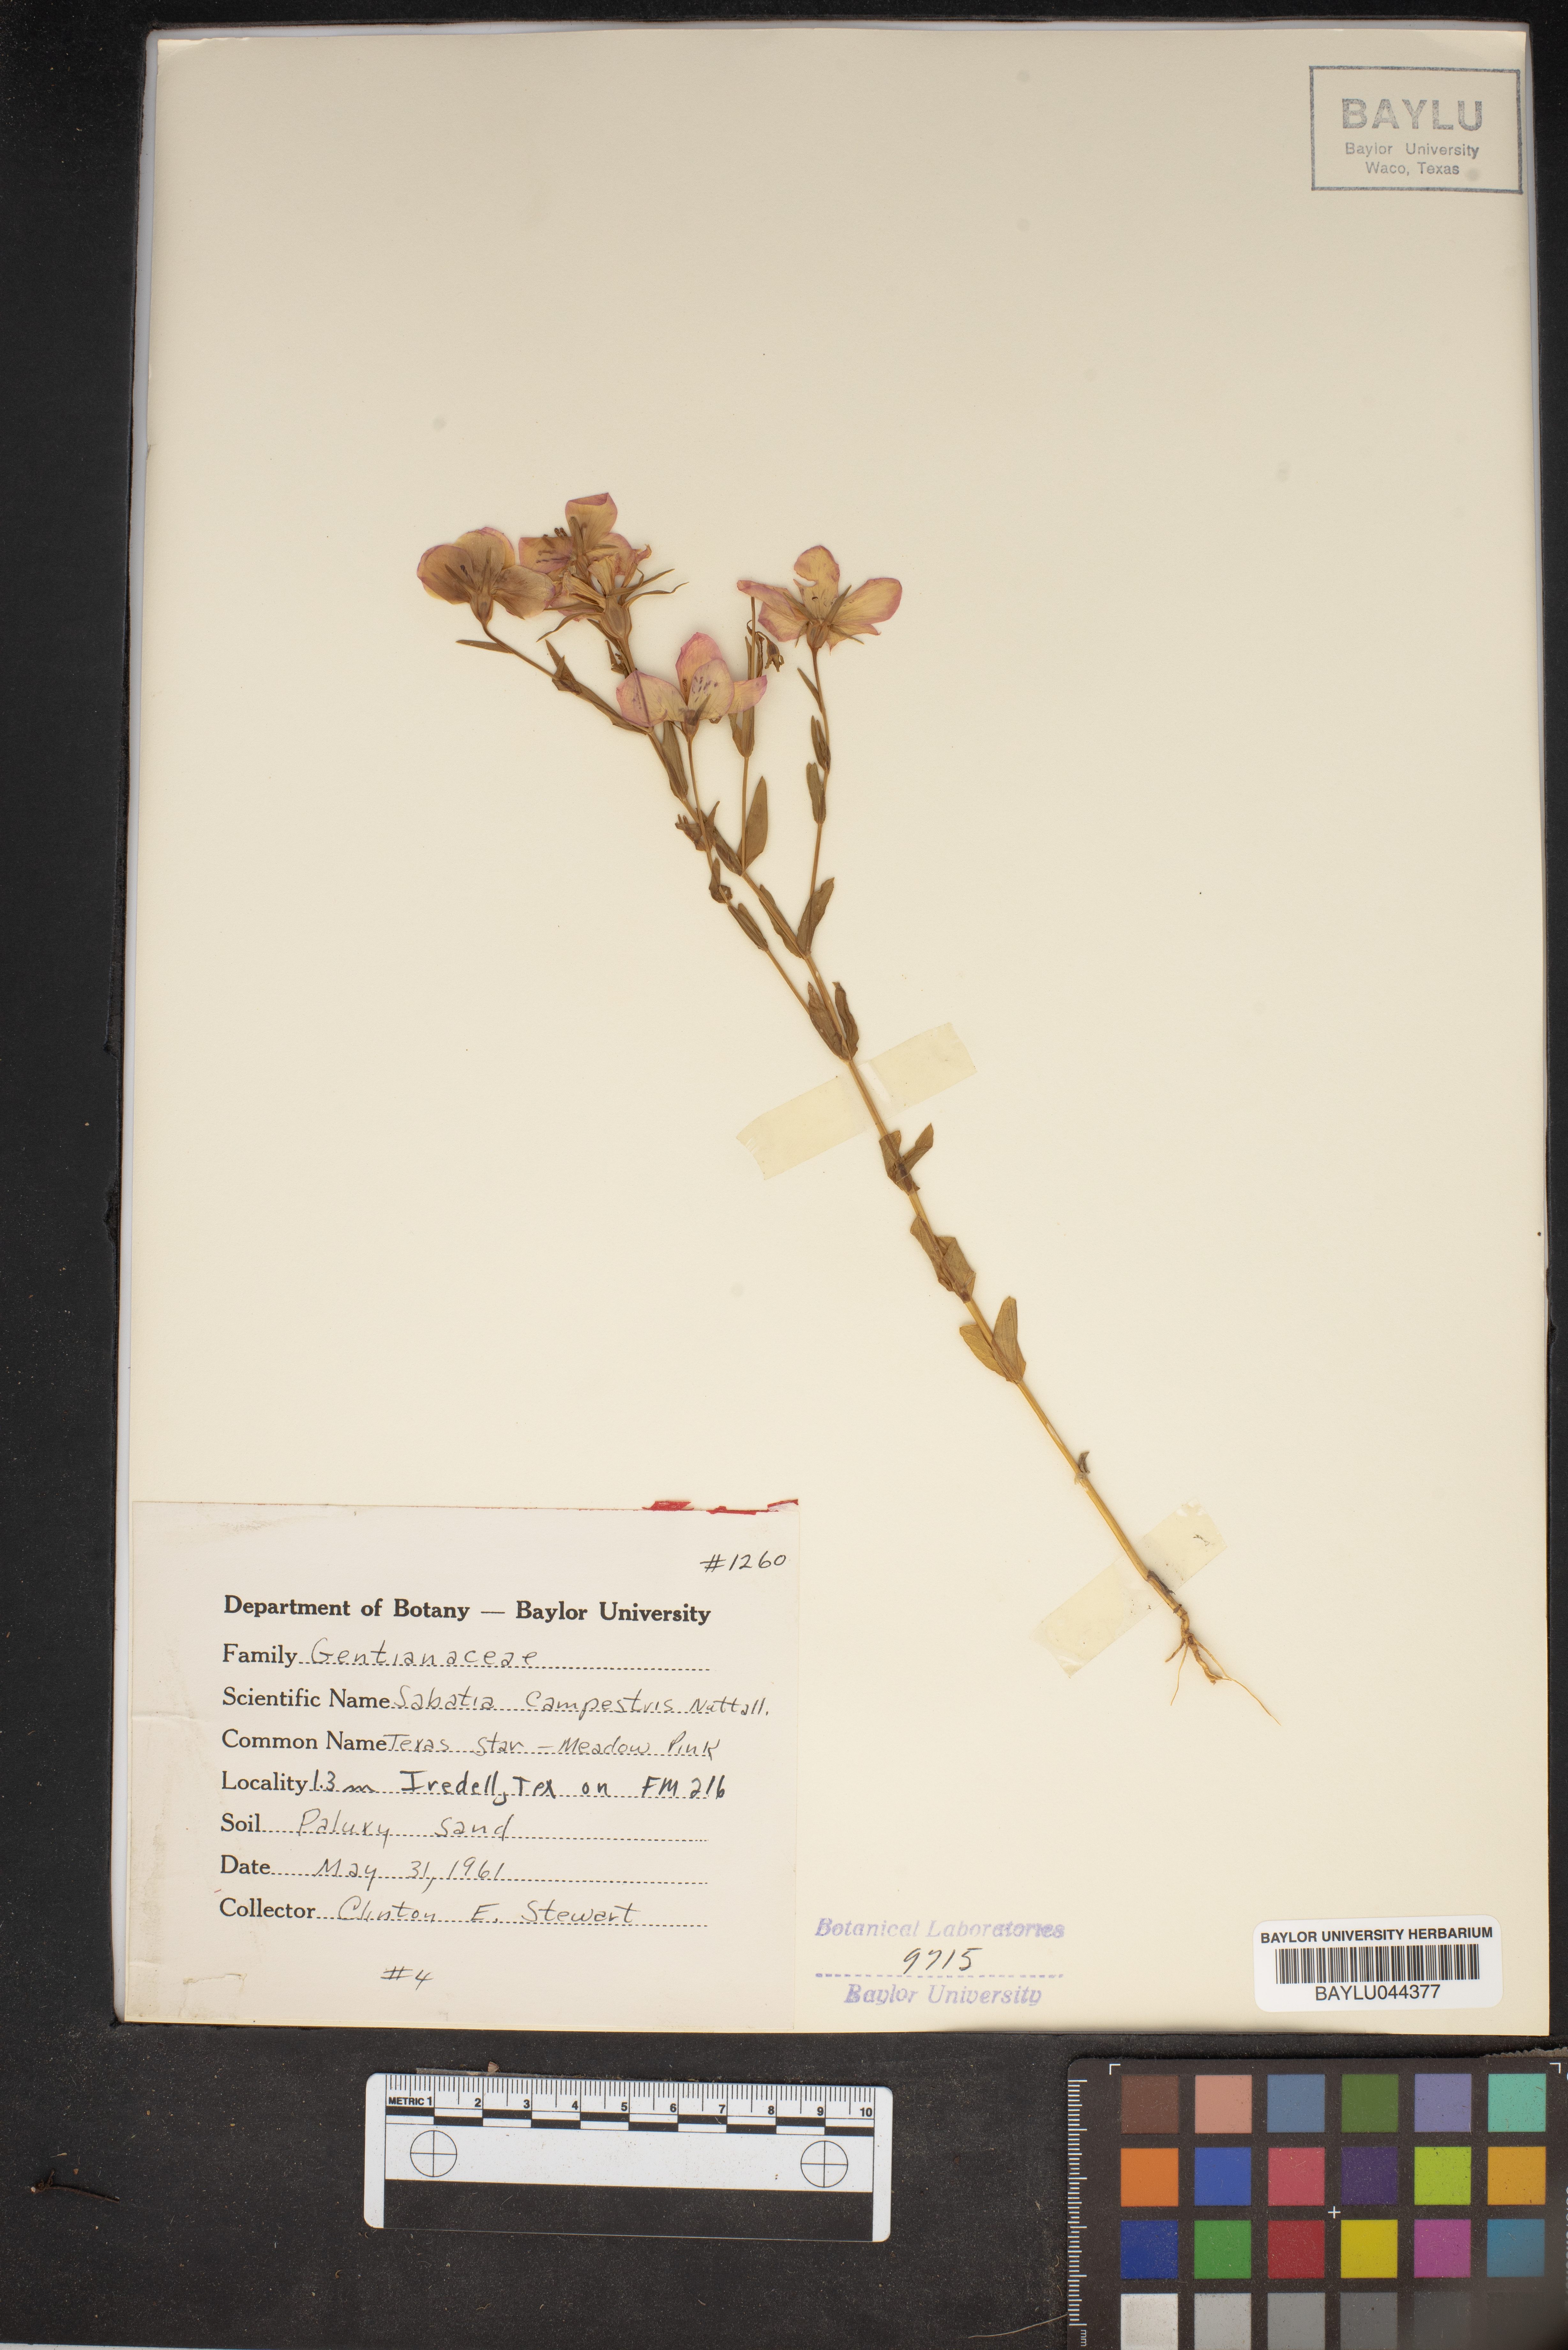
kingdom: Plantae
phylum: Tracheophyta
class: Magnoliopsida
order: Gentianales
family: Gentianaceae
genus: Sabatia
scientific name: Sabatia campestris
